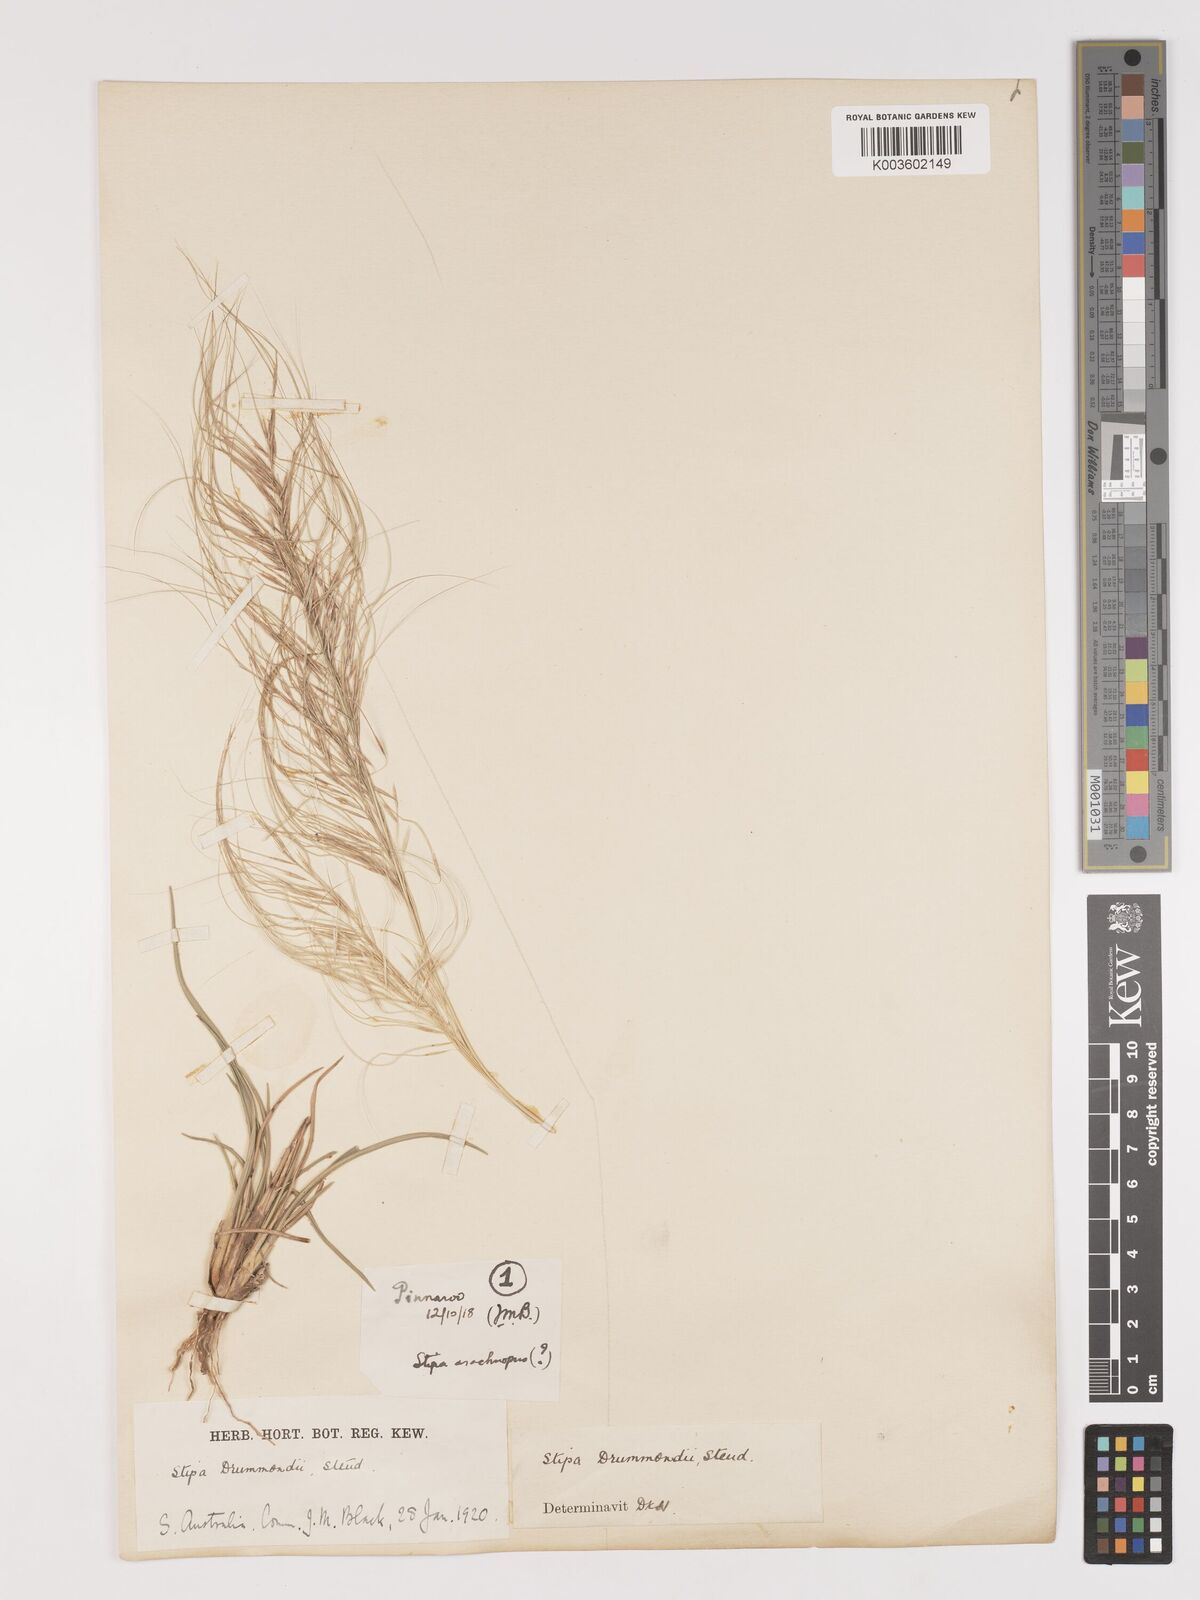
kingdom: Plantae
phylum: Tracheophyta
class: Liliopsida
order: Poales
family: Poaceae
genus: Austrostipa
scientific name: Austrostipa drummondii
